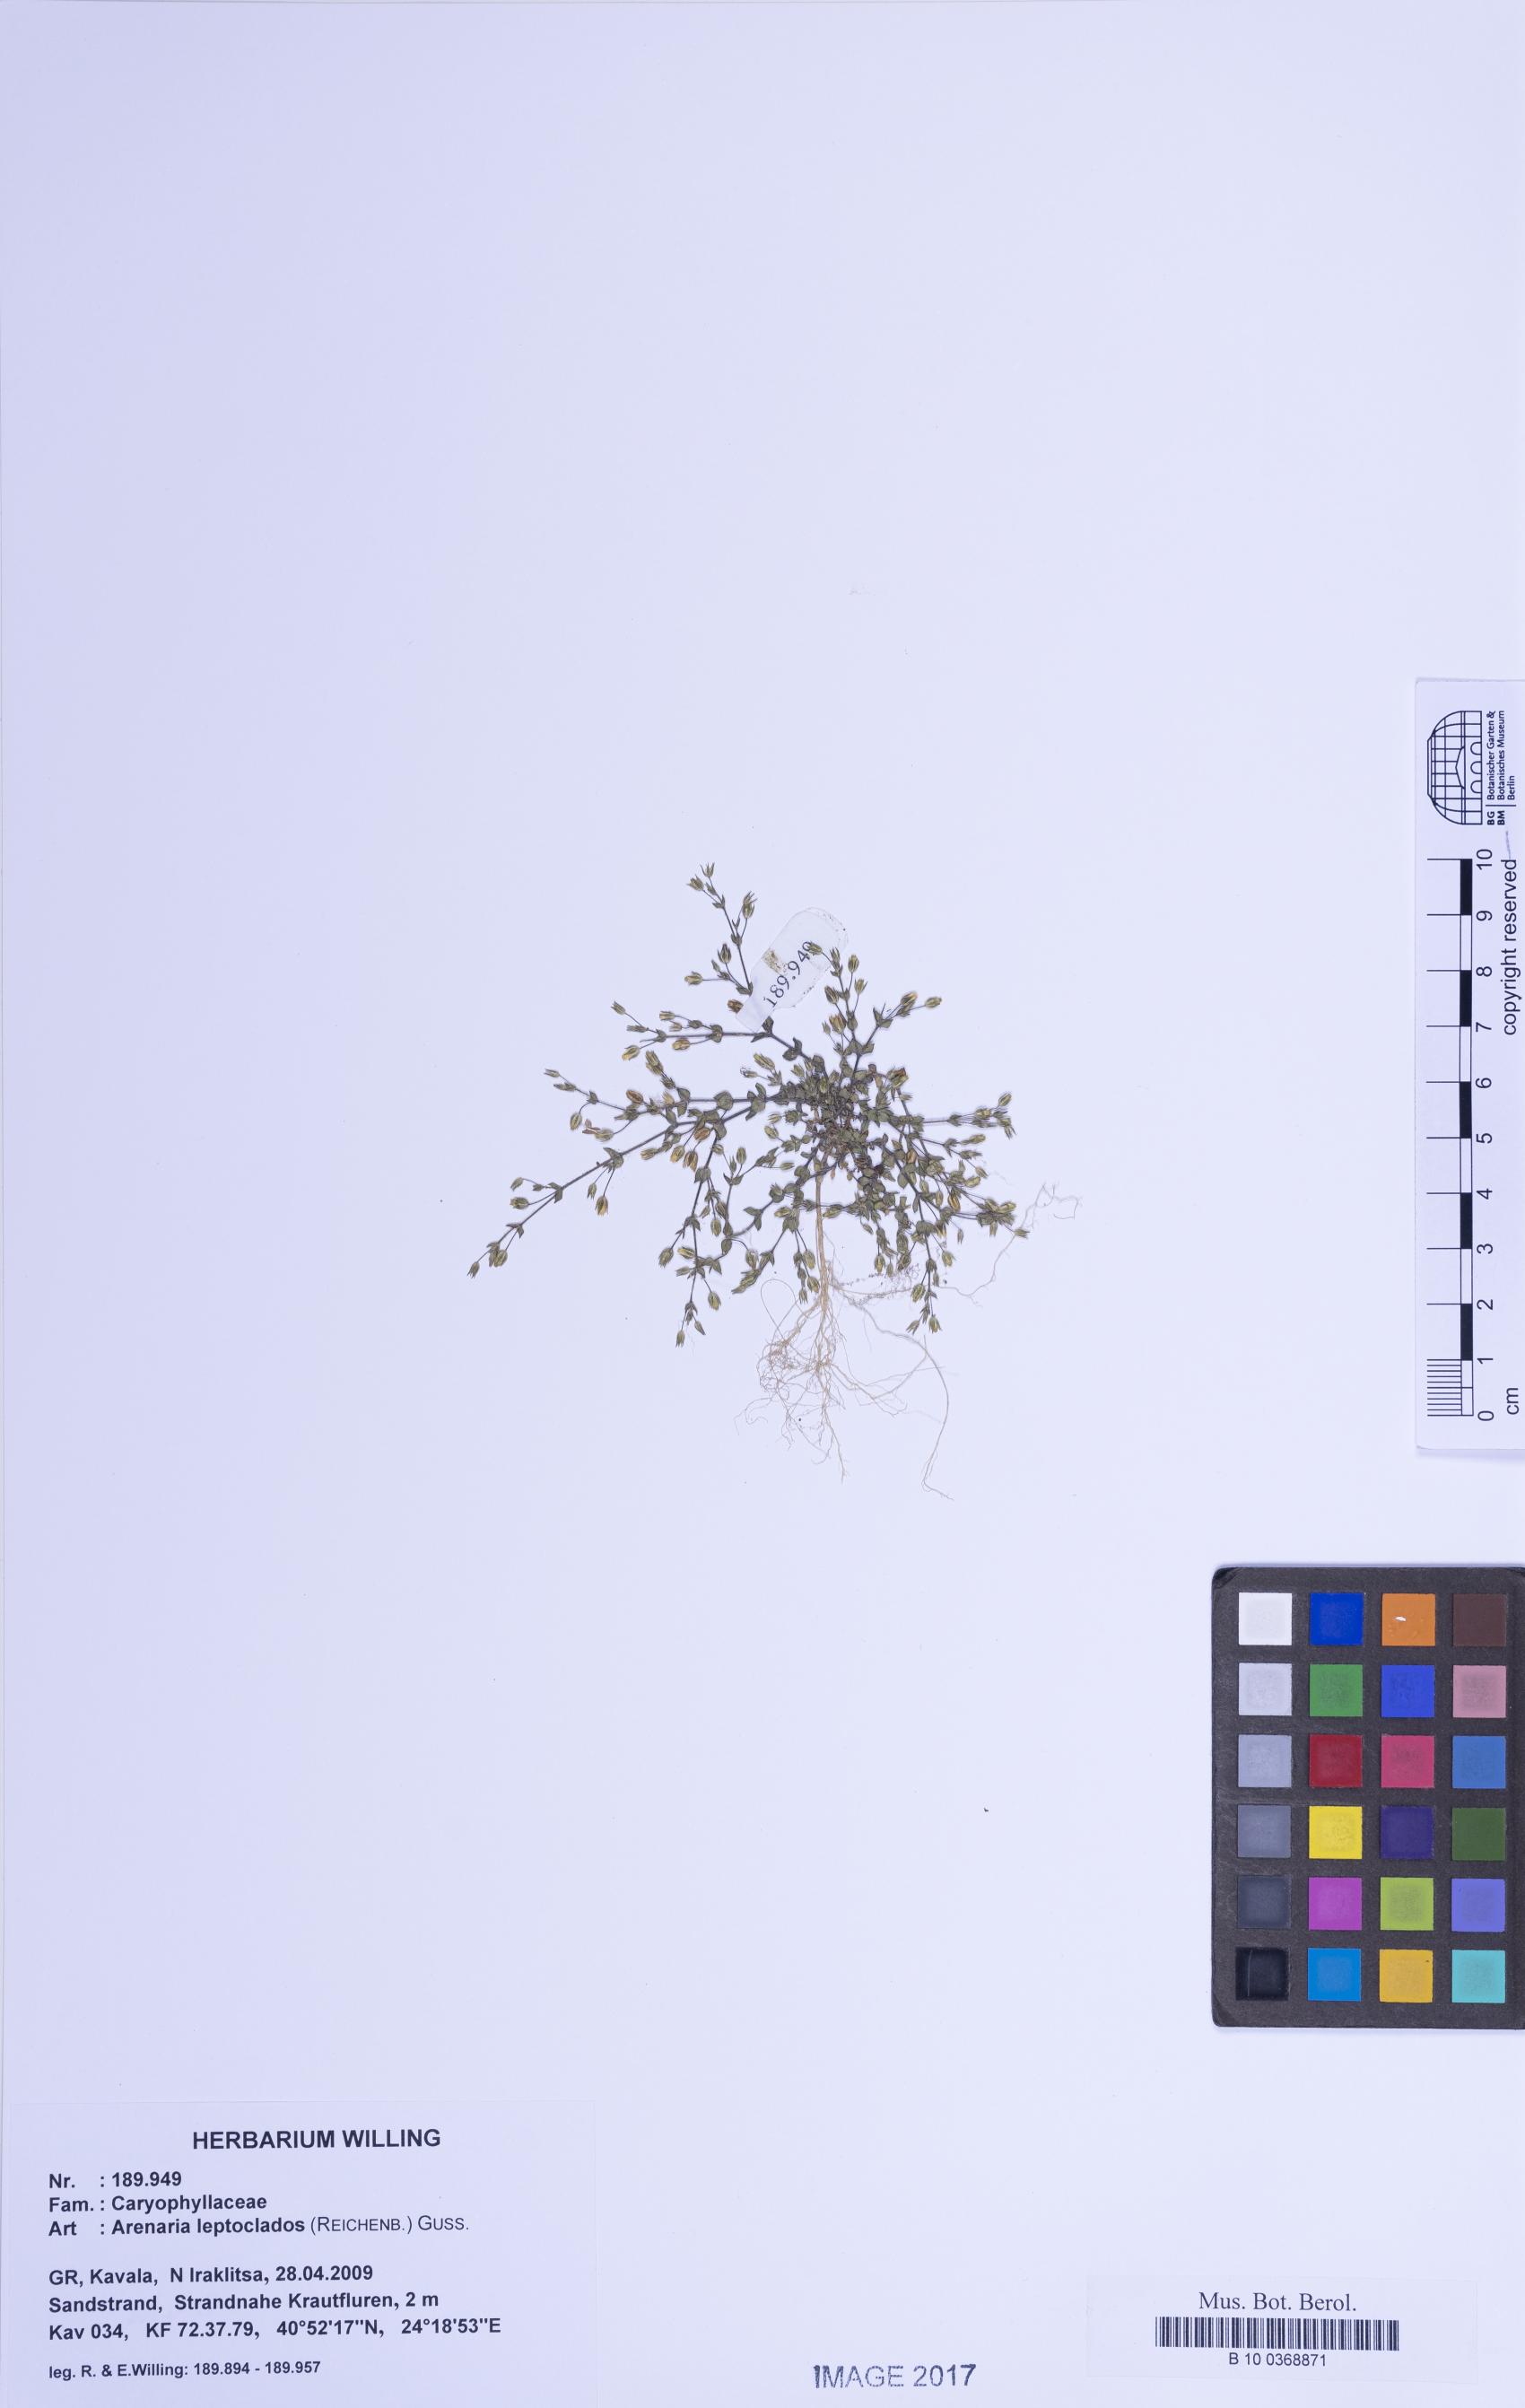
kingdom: Plantae
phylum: Tracheophyta
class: Magnoliopsida
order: Caryophyllales
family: Caryophyllaceae
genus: Arenaria
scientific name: Arenaria leptoclados
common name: Thyme-leaved sandwort
